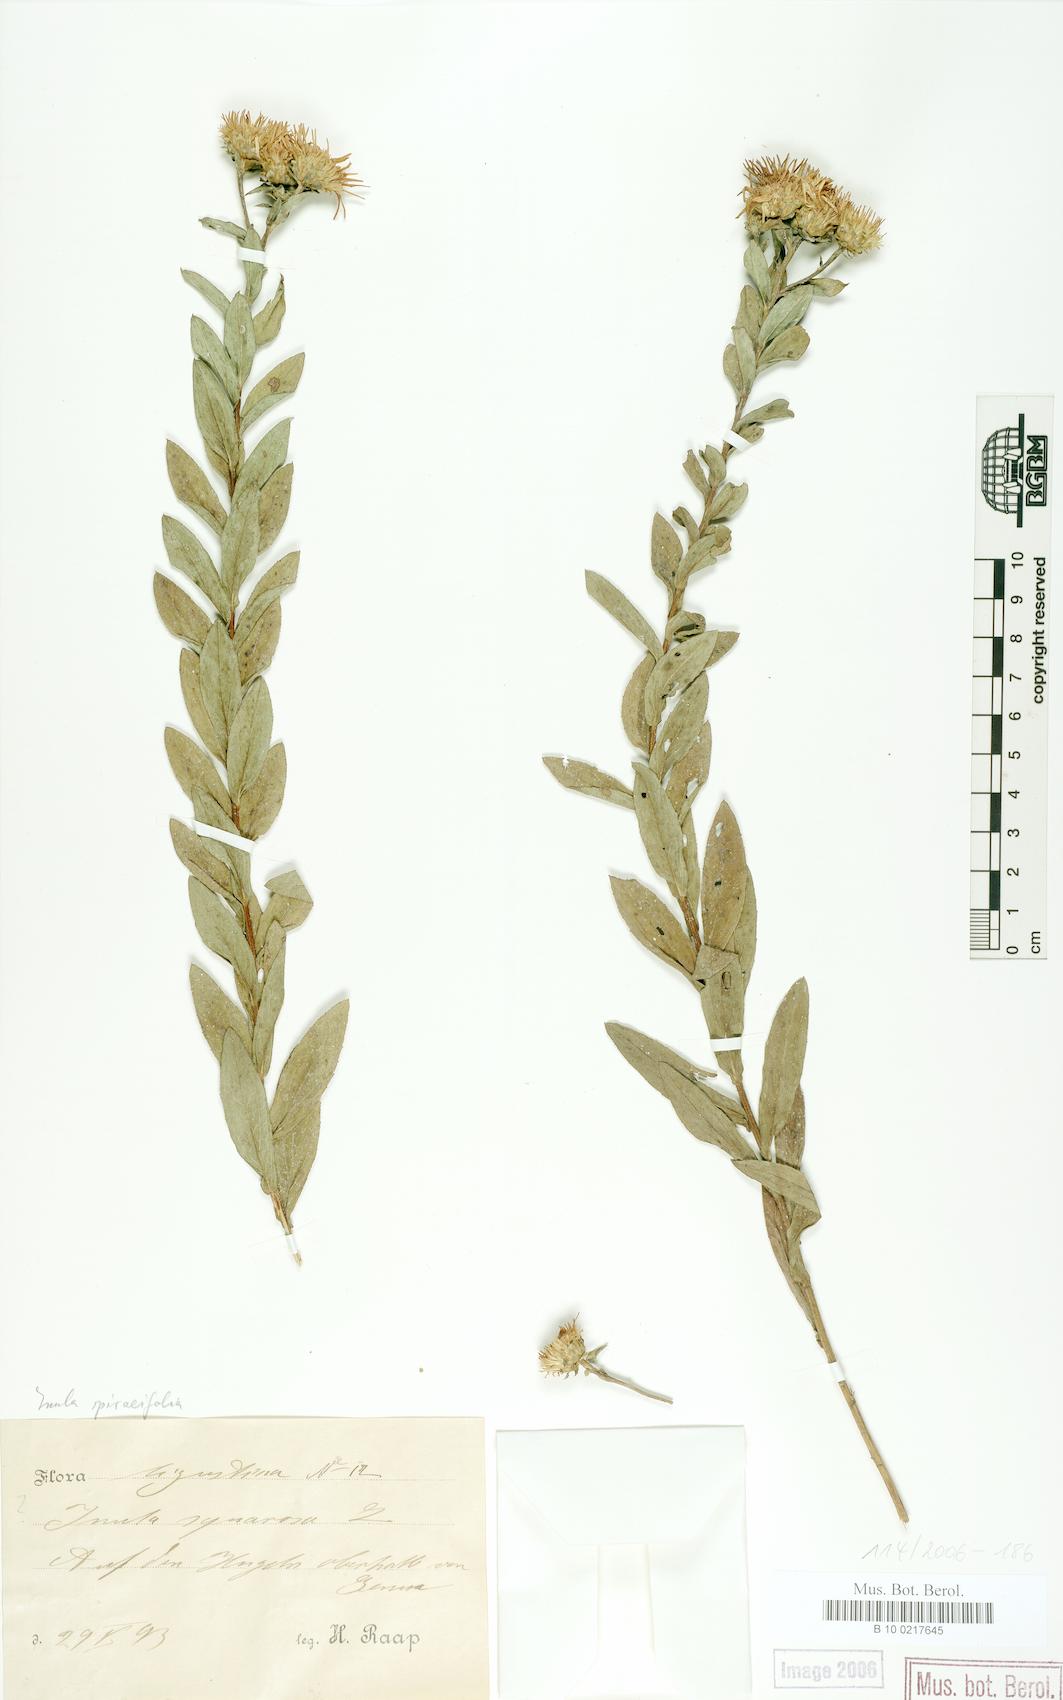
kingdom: Plantae
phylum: Tracheophyta
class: Magnoliopsida
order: Asterales
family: Asteraceae
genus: Pentanema
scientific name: Pentanema spiraeifolium
